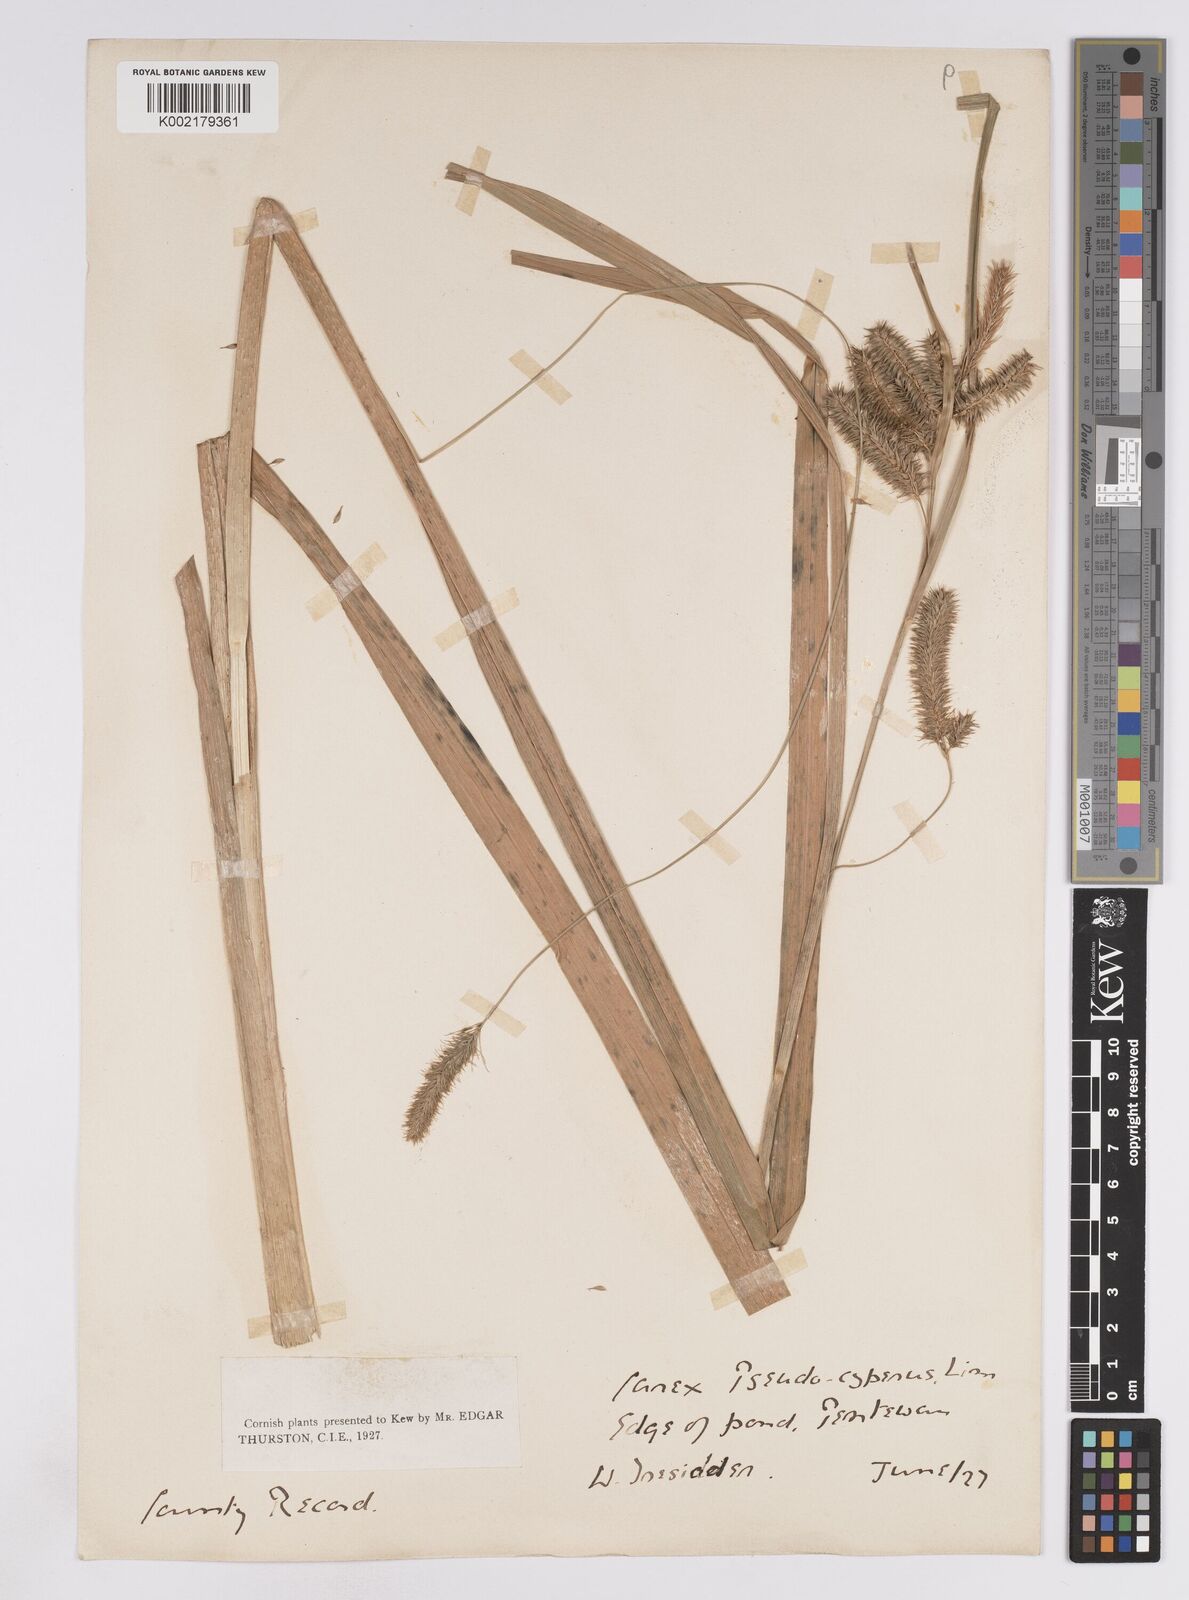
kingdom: Plantae
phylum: Tracheophyta
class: Liliopsida
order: Poales
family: Cyperaceae
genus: Carex
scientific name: Carex pseudocyperus
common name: Cyperus sedge
